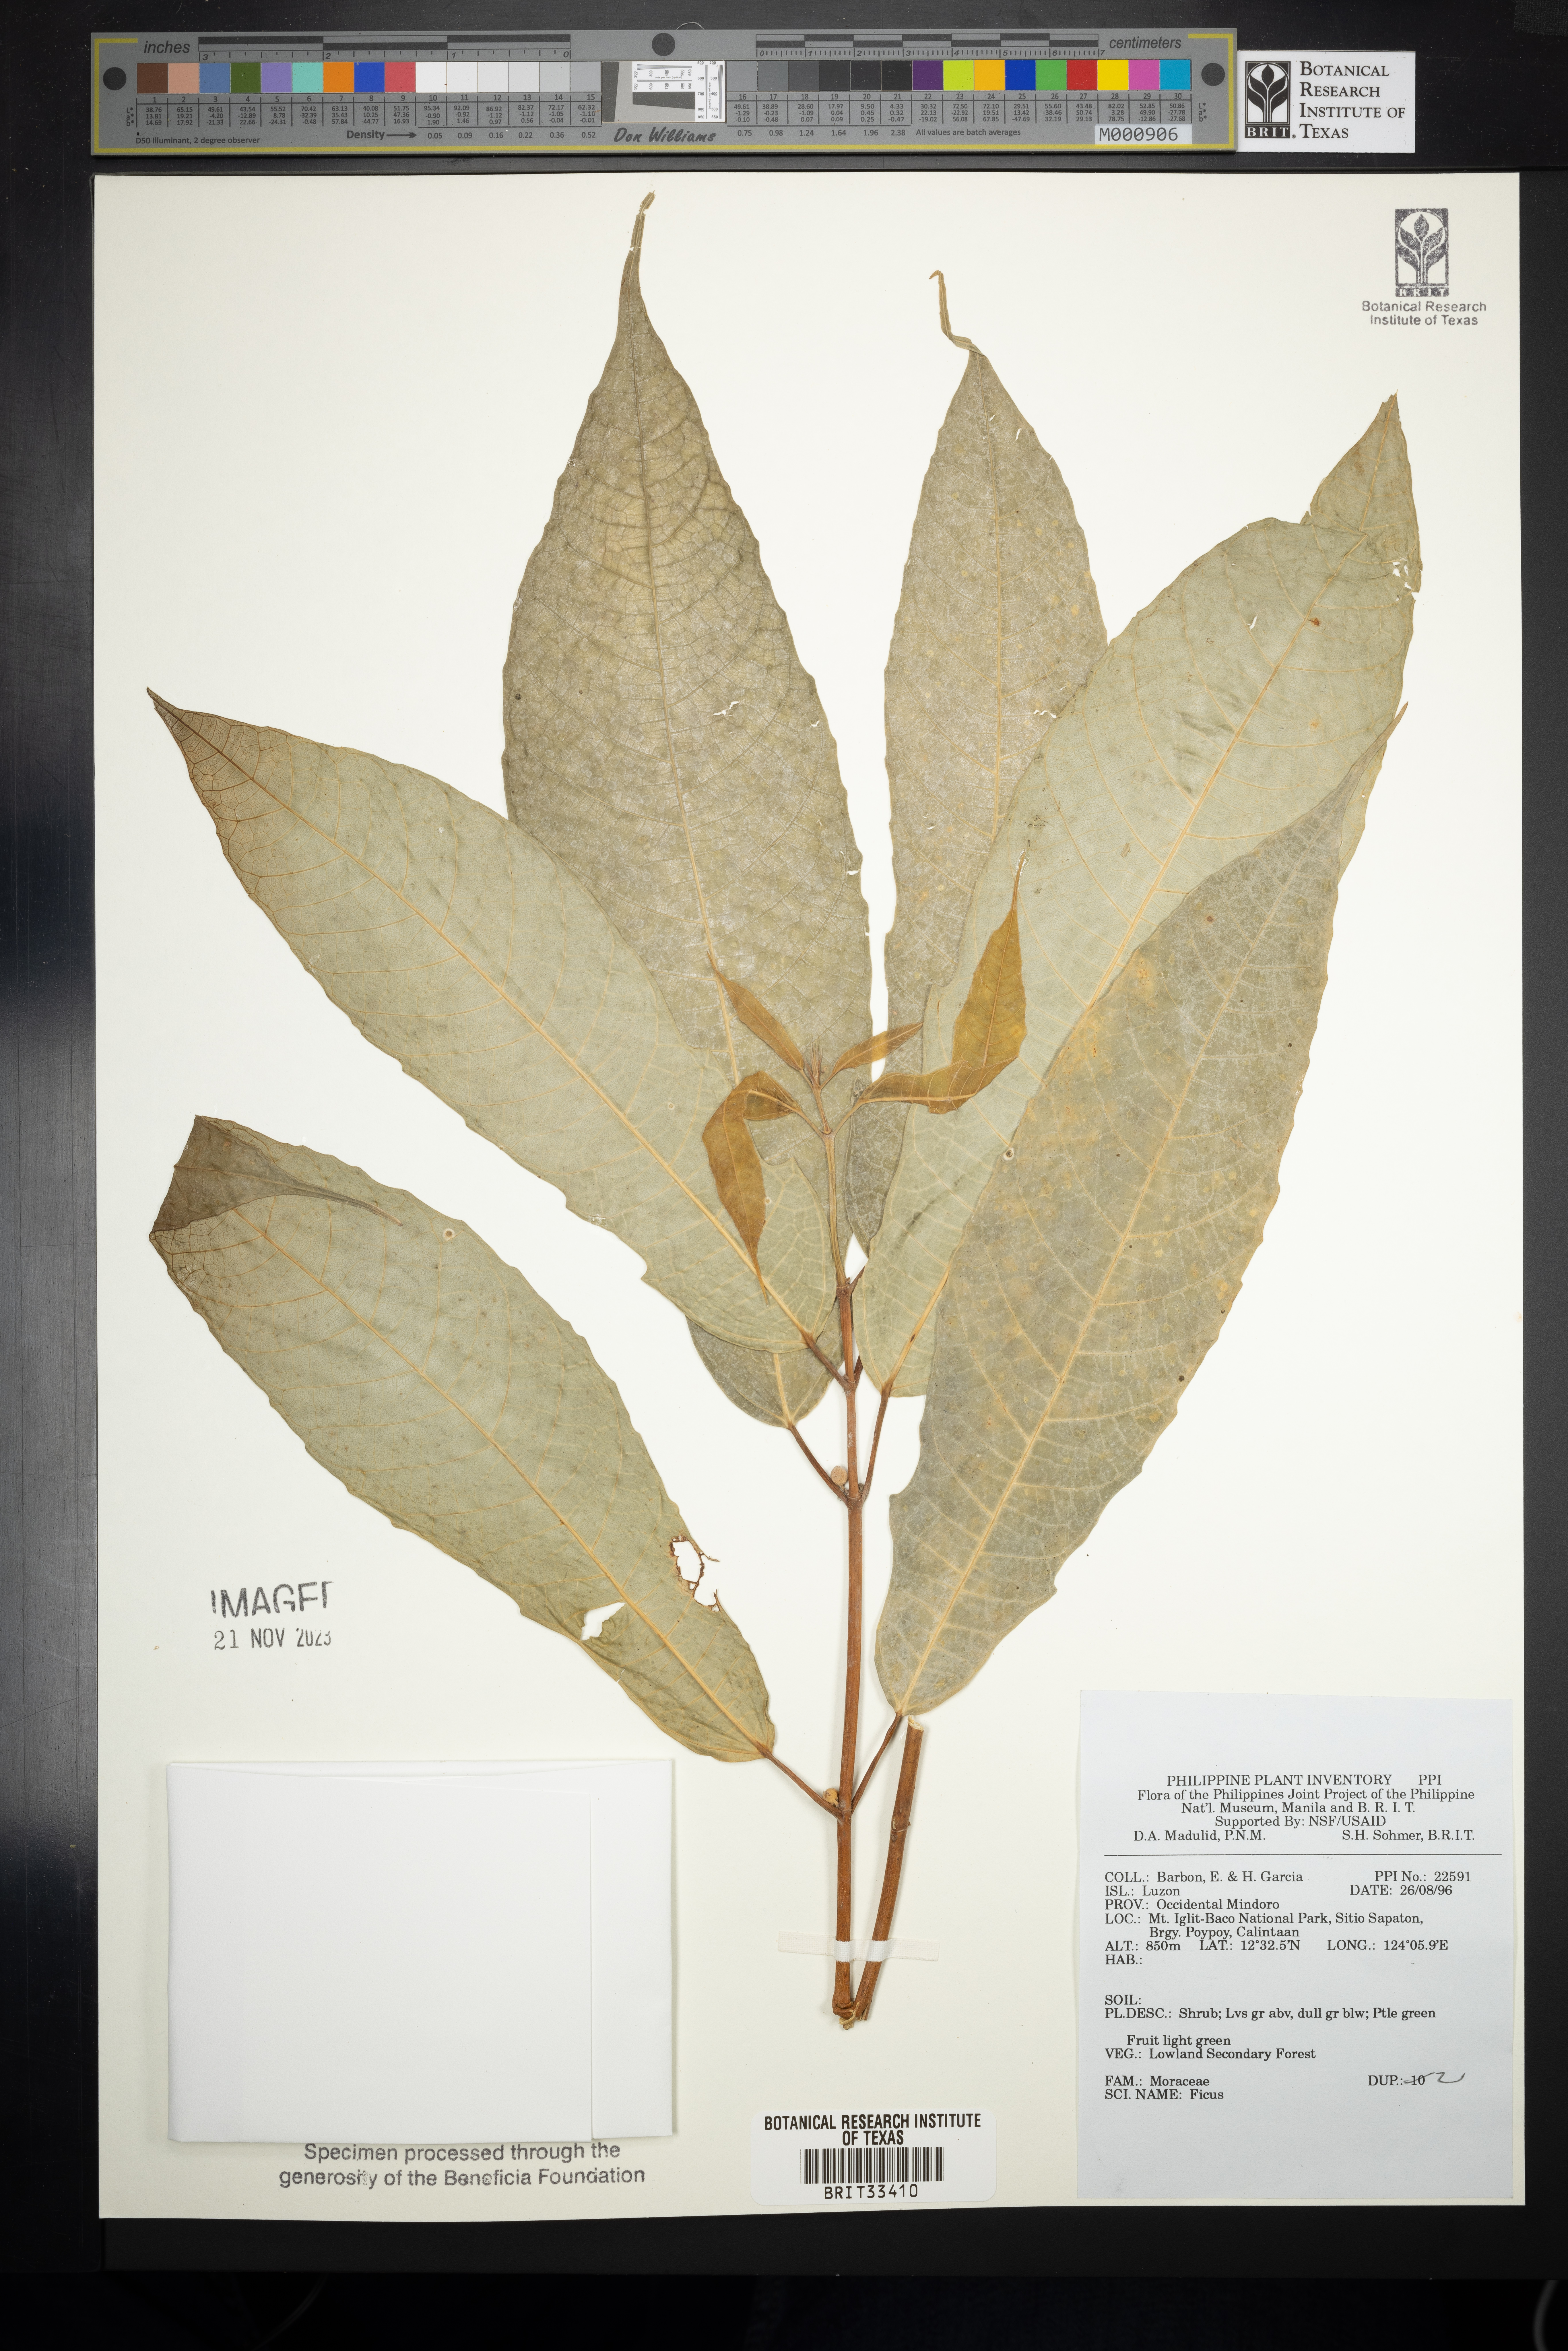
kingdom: Plantae
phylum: Tracheophyta
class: Magnoliopsida
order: Rosales
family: Moraceae
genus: Ficus
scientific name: Ficus
